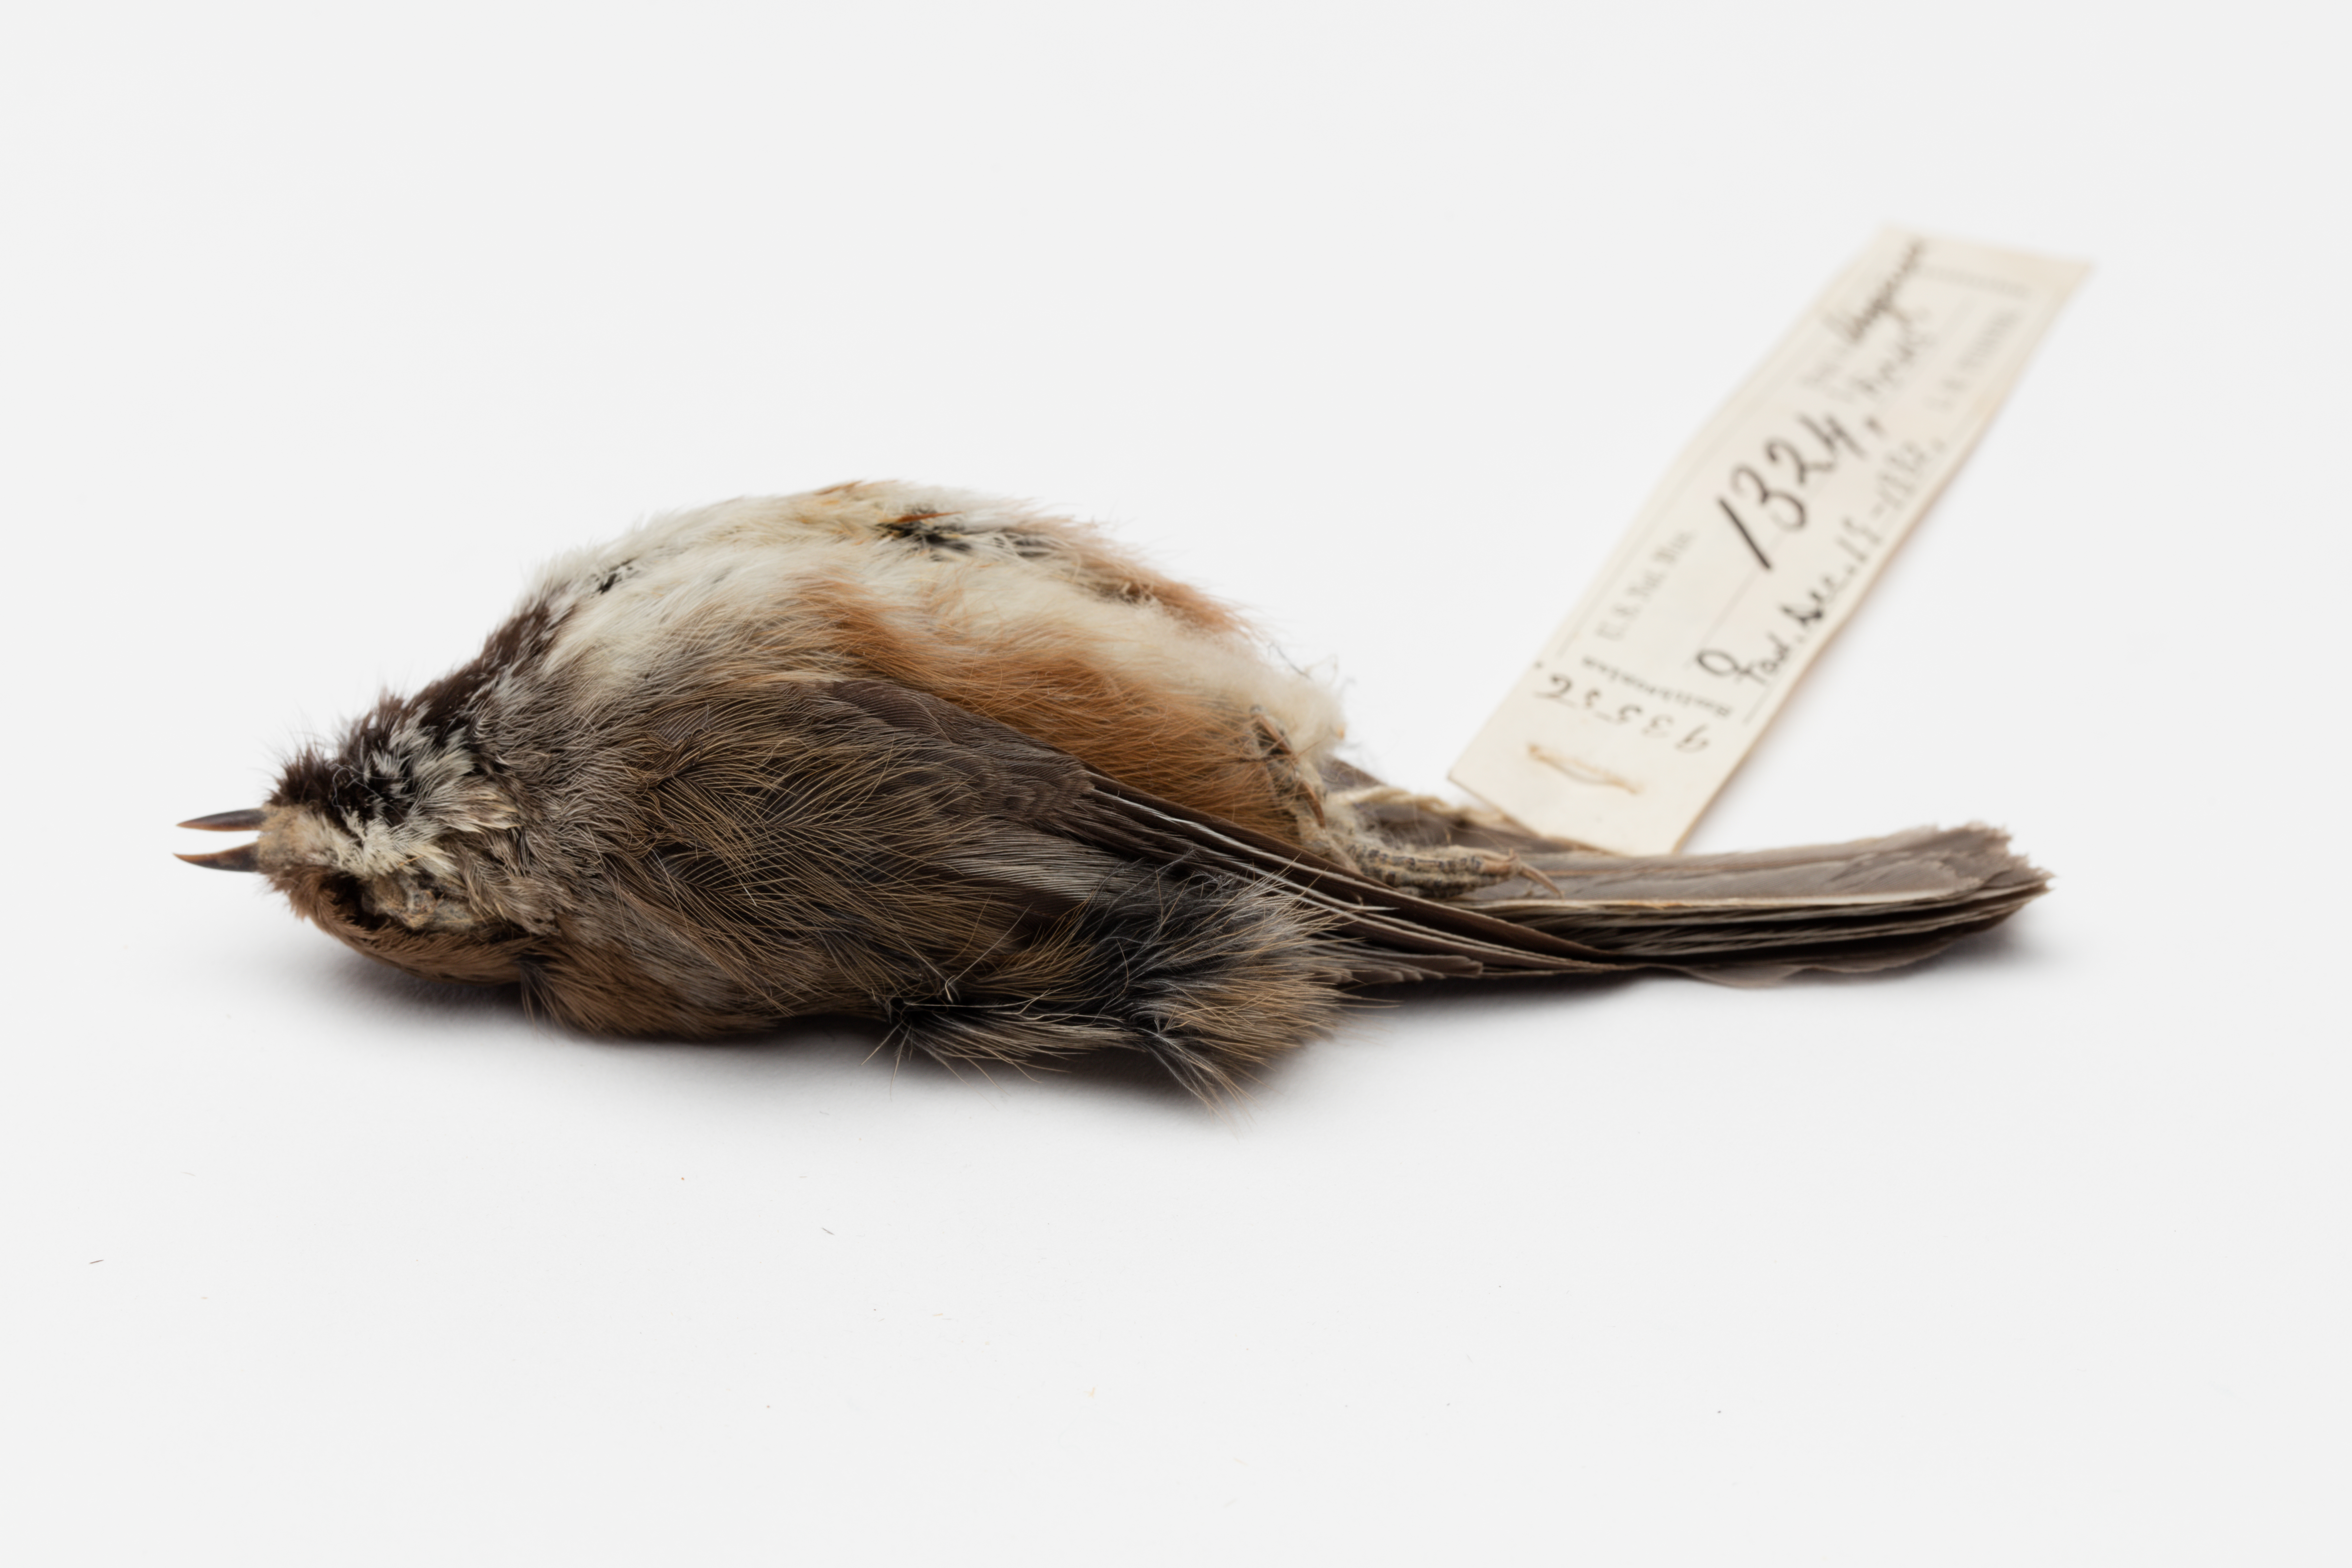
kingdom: Animalia
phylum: Chordata
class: Aves
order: Passeriformes
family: Paridae
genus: Poecile
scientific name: Poecile hudsonicus
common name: Boreal chickadee
